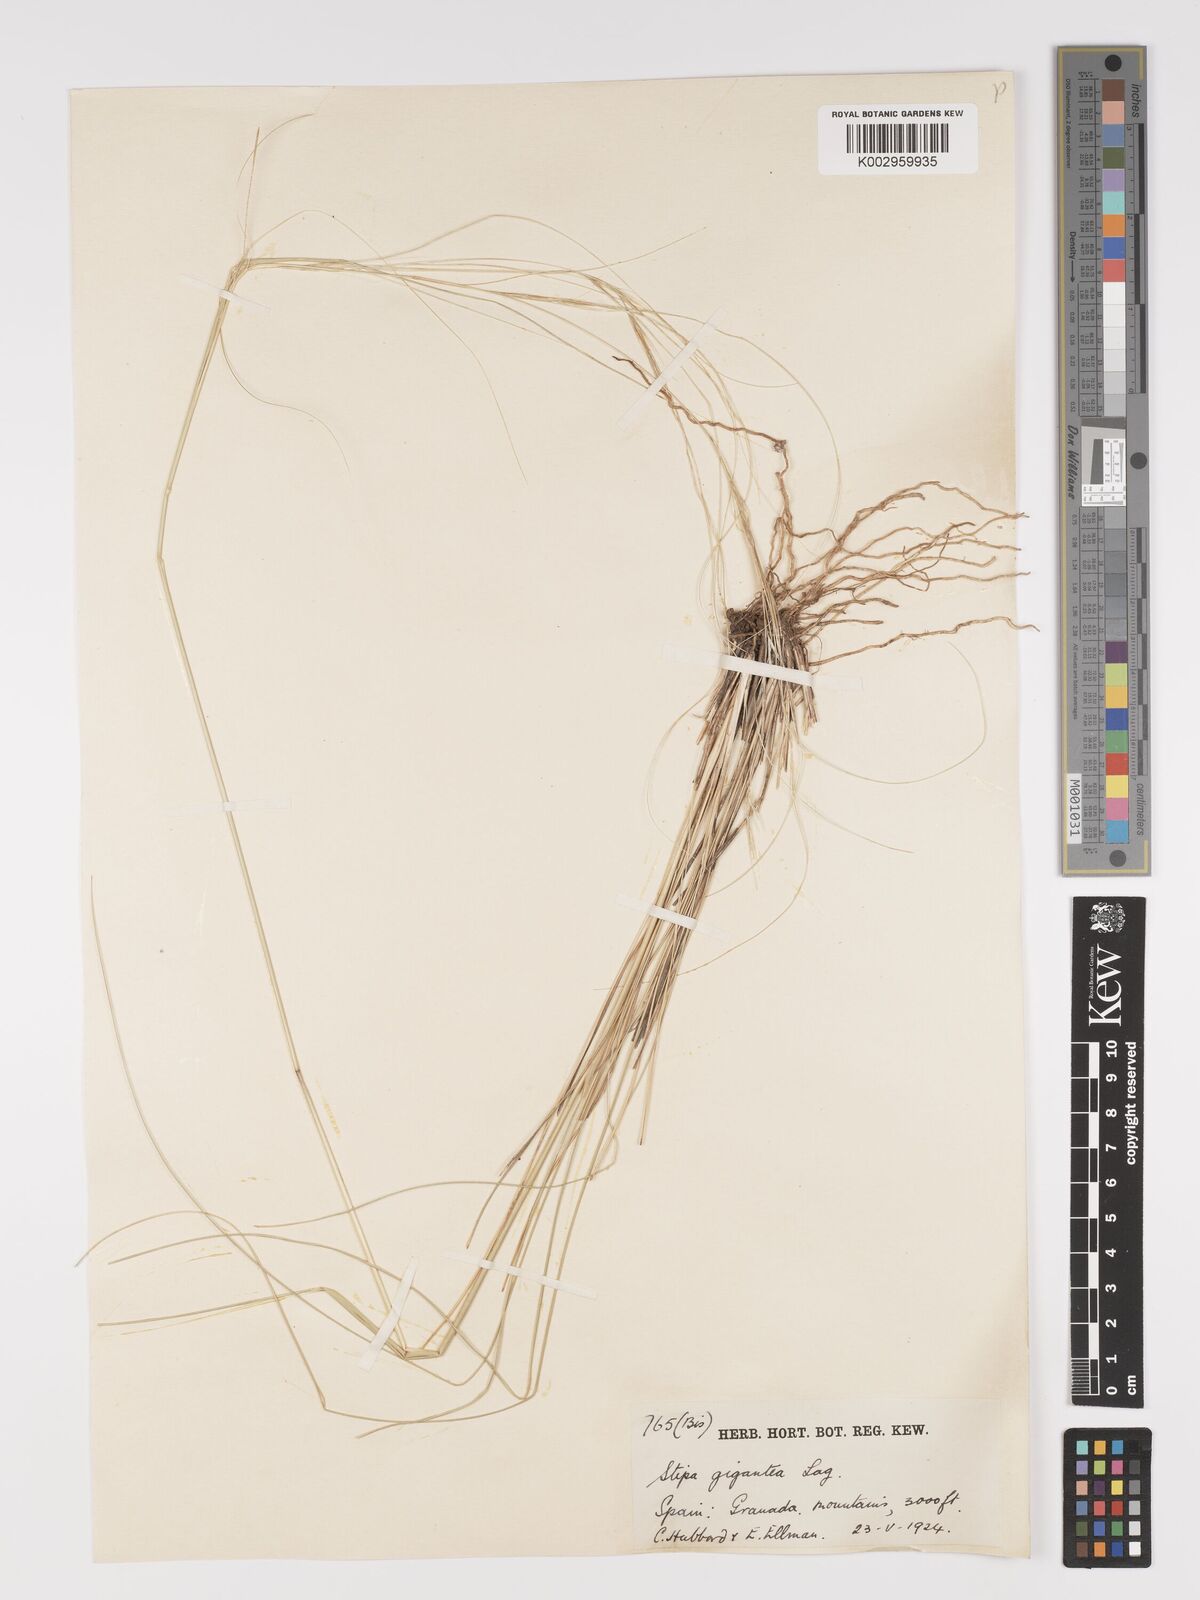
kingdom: Plantae
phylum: Tracheophyta
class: Liliopsida
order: Poales
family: Poaceae
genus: Stipa
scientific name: Stipa
